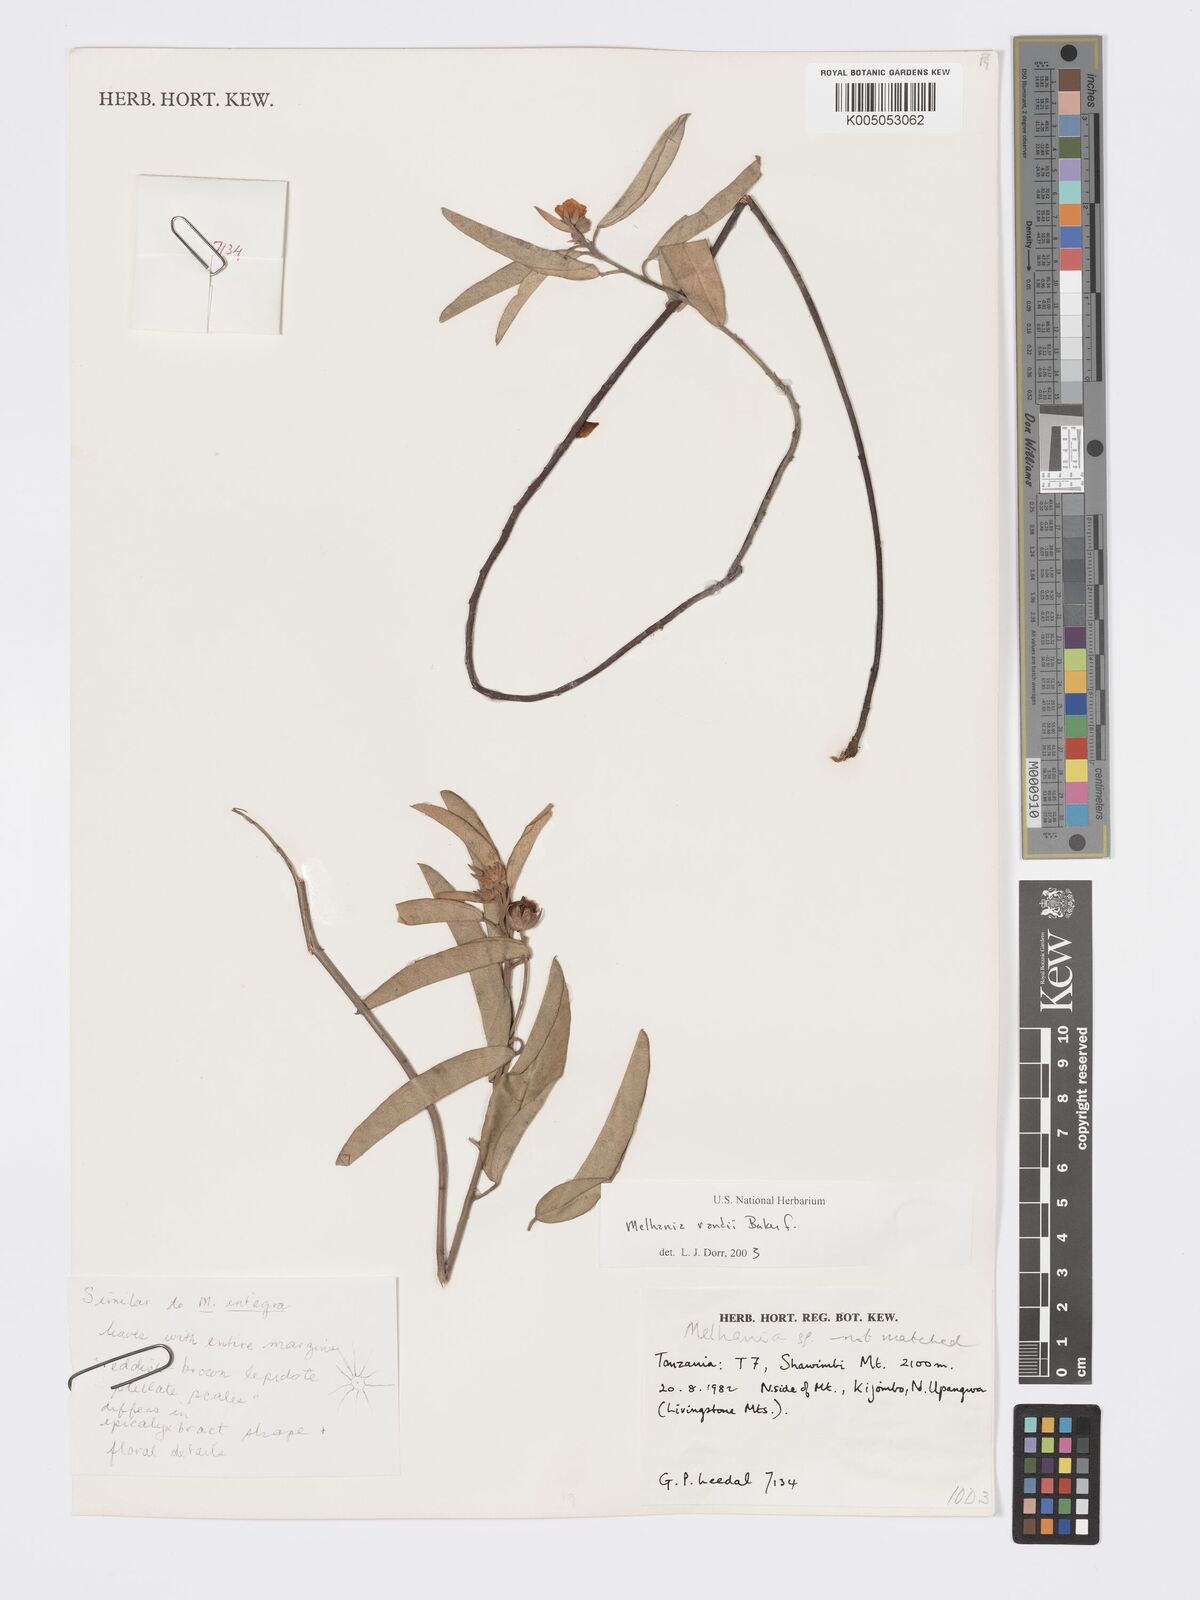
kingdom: Plantae
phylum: Tracheophyta
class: Magnoliopsida
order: Malvales
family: Malvaceae
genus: Melhania
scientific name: Melhania randii
